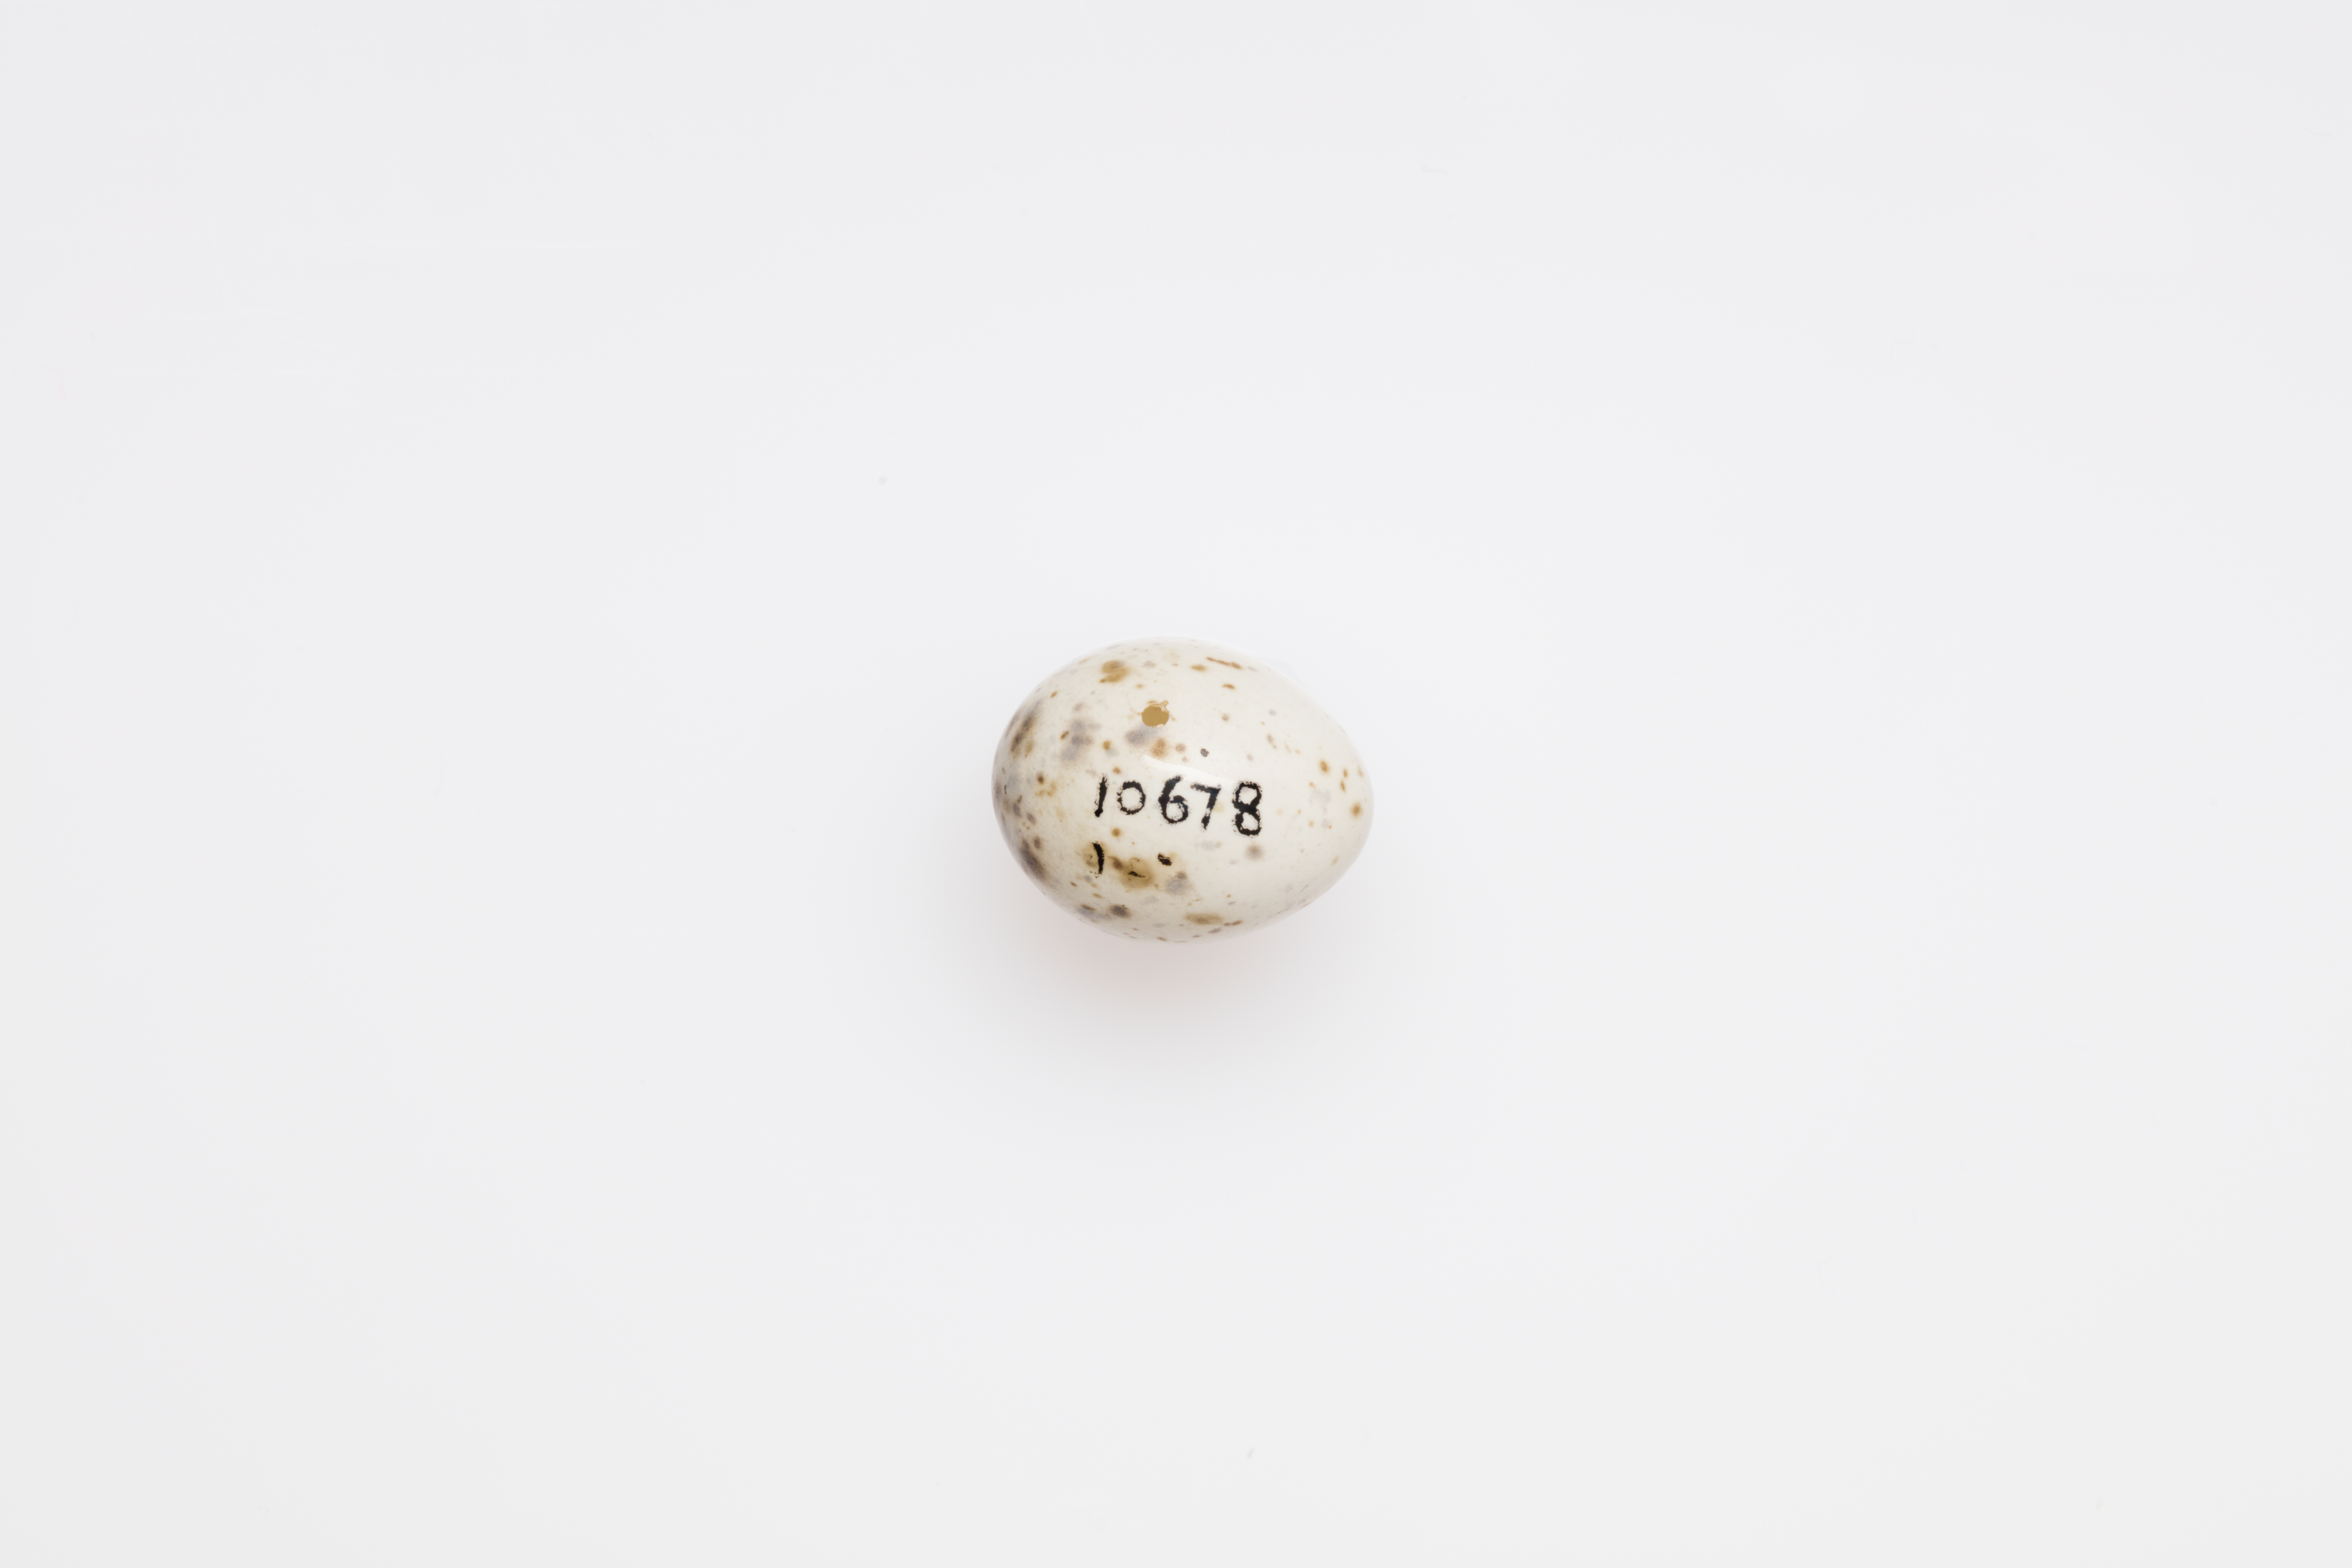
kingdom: Animalia
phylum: Chordata
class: Aves
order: Passeriformes
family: Sylviidae
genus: Sylvia
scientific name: Sylvia curruca
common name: Lesser whitethroat
